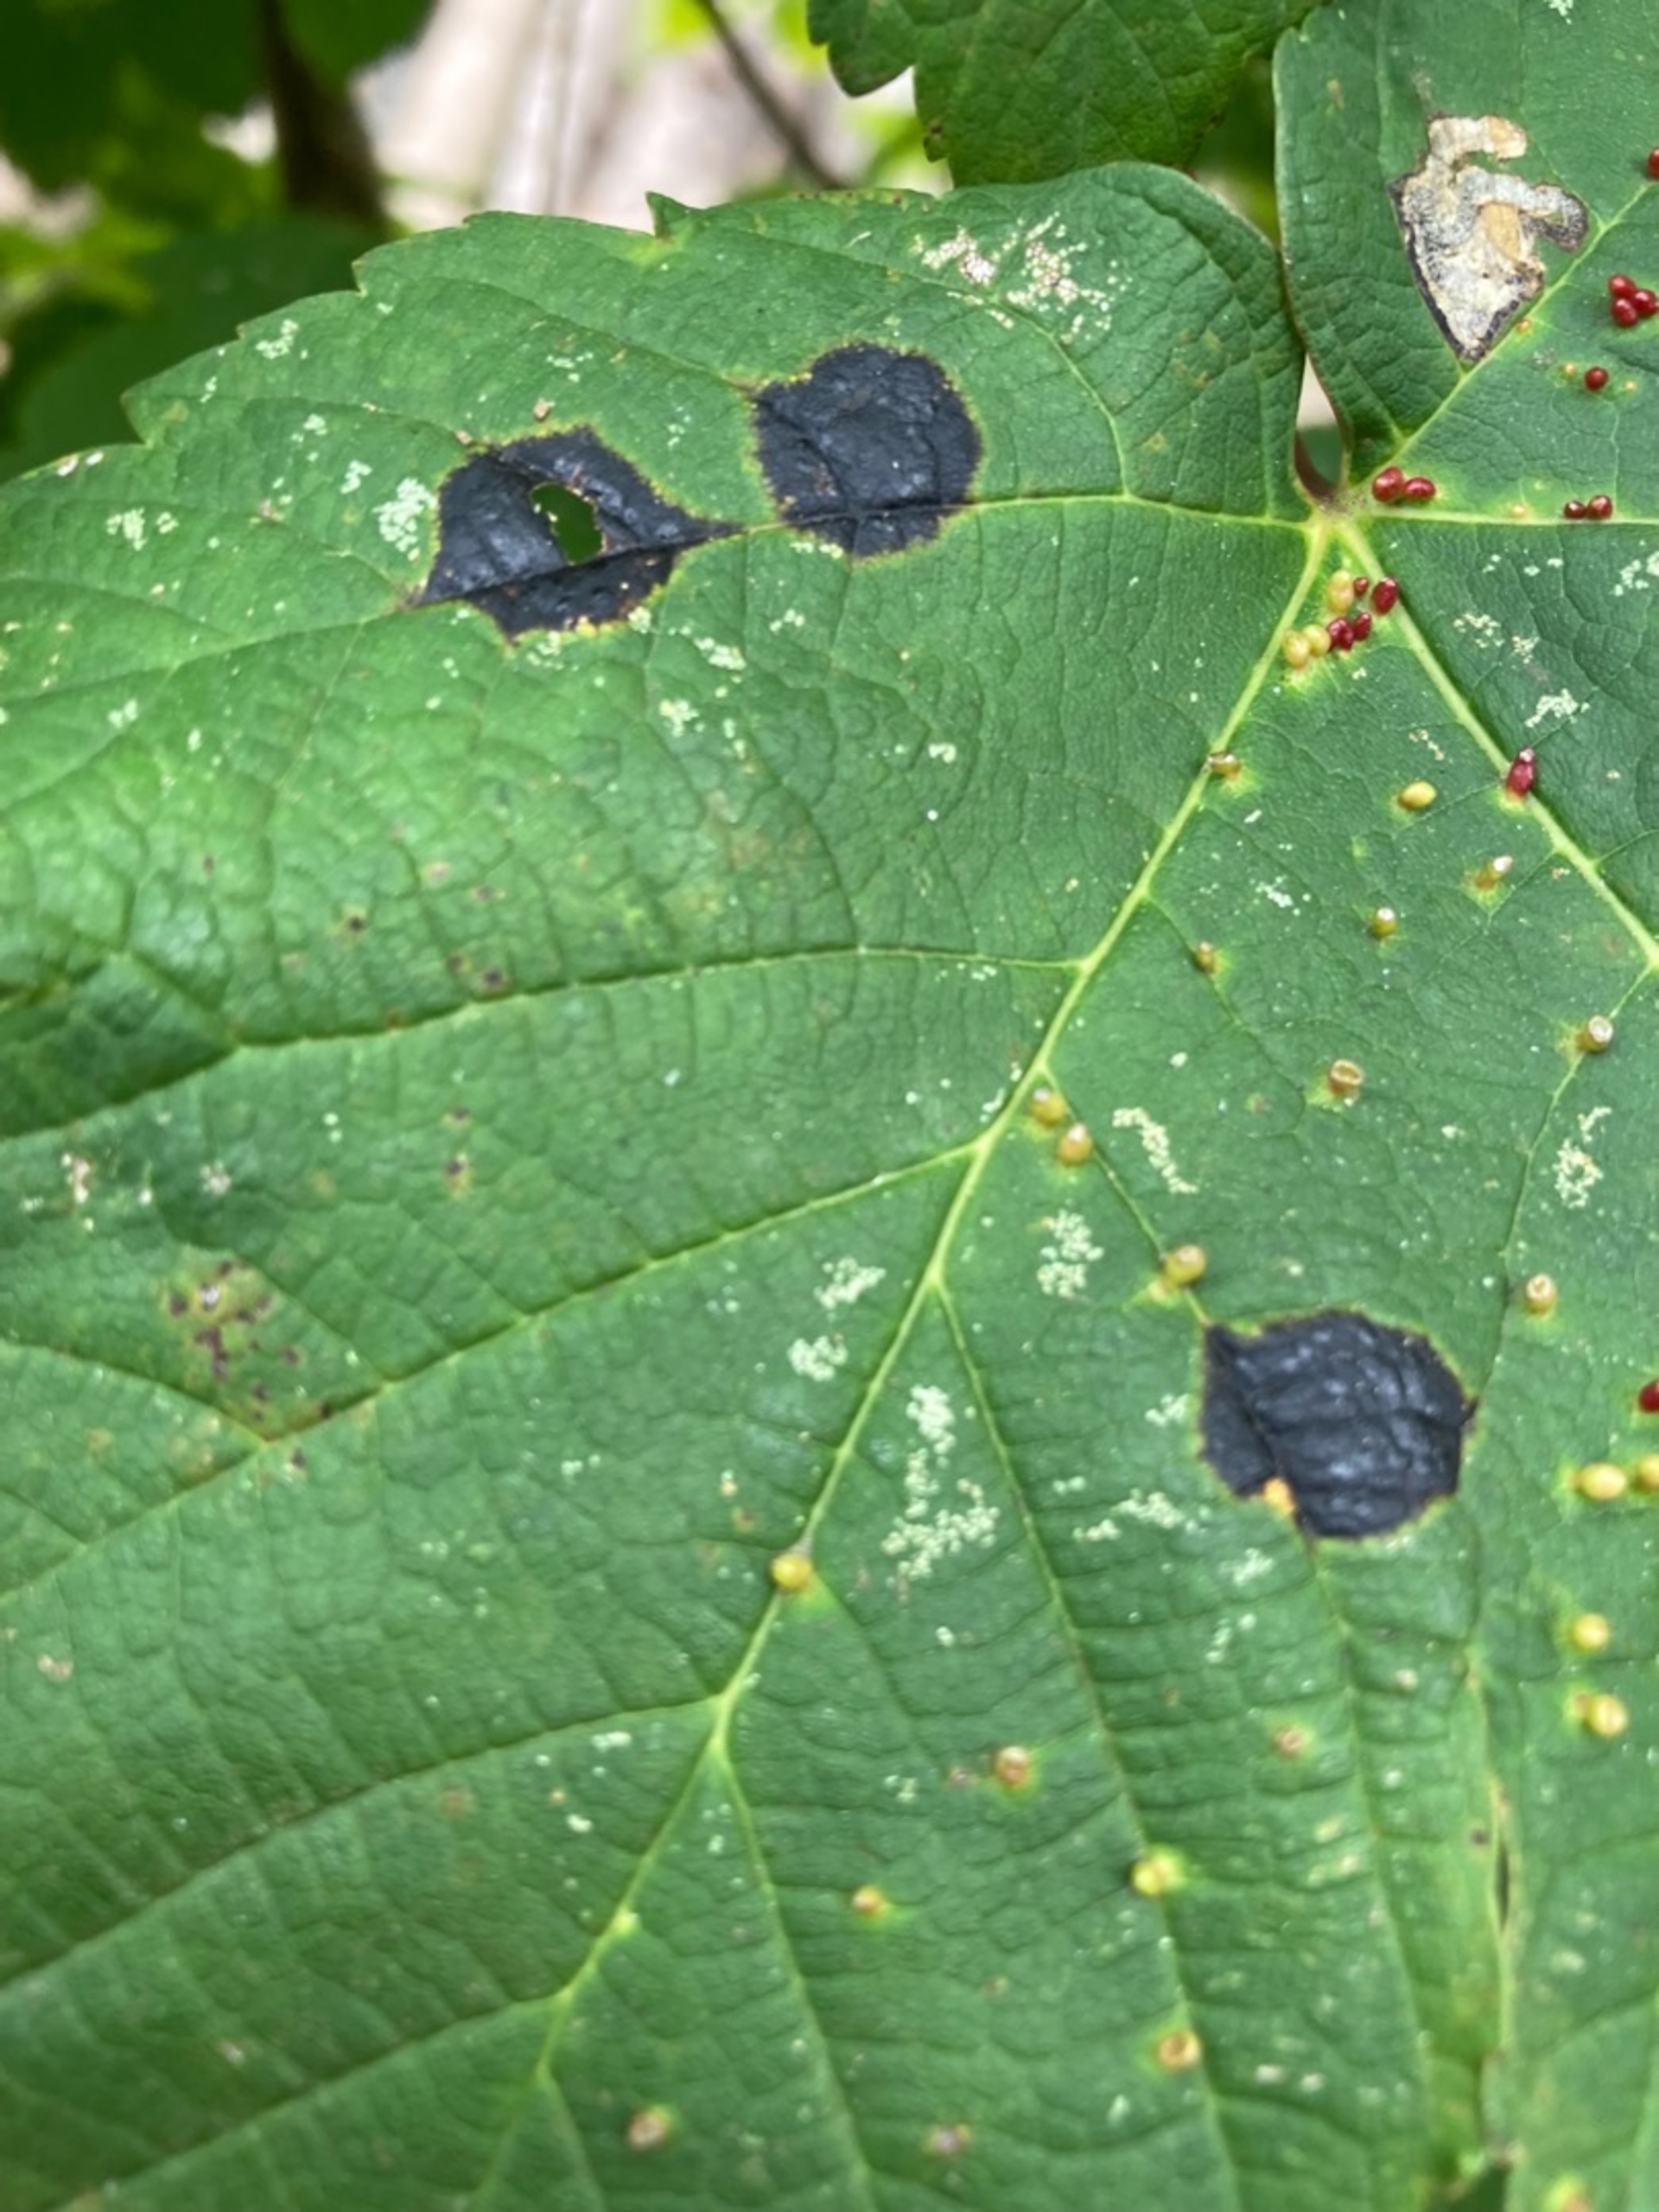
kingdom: Plantae
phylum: Tracheophyta
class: Magnoliopsida
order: Sapindales
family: Sapindaceae
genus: Acer
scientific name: Acer pseudoplatanus
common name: Ahorn
